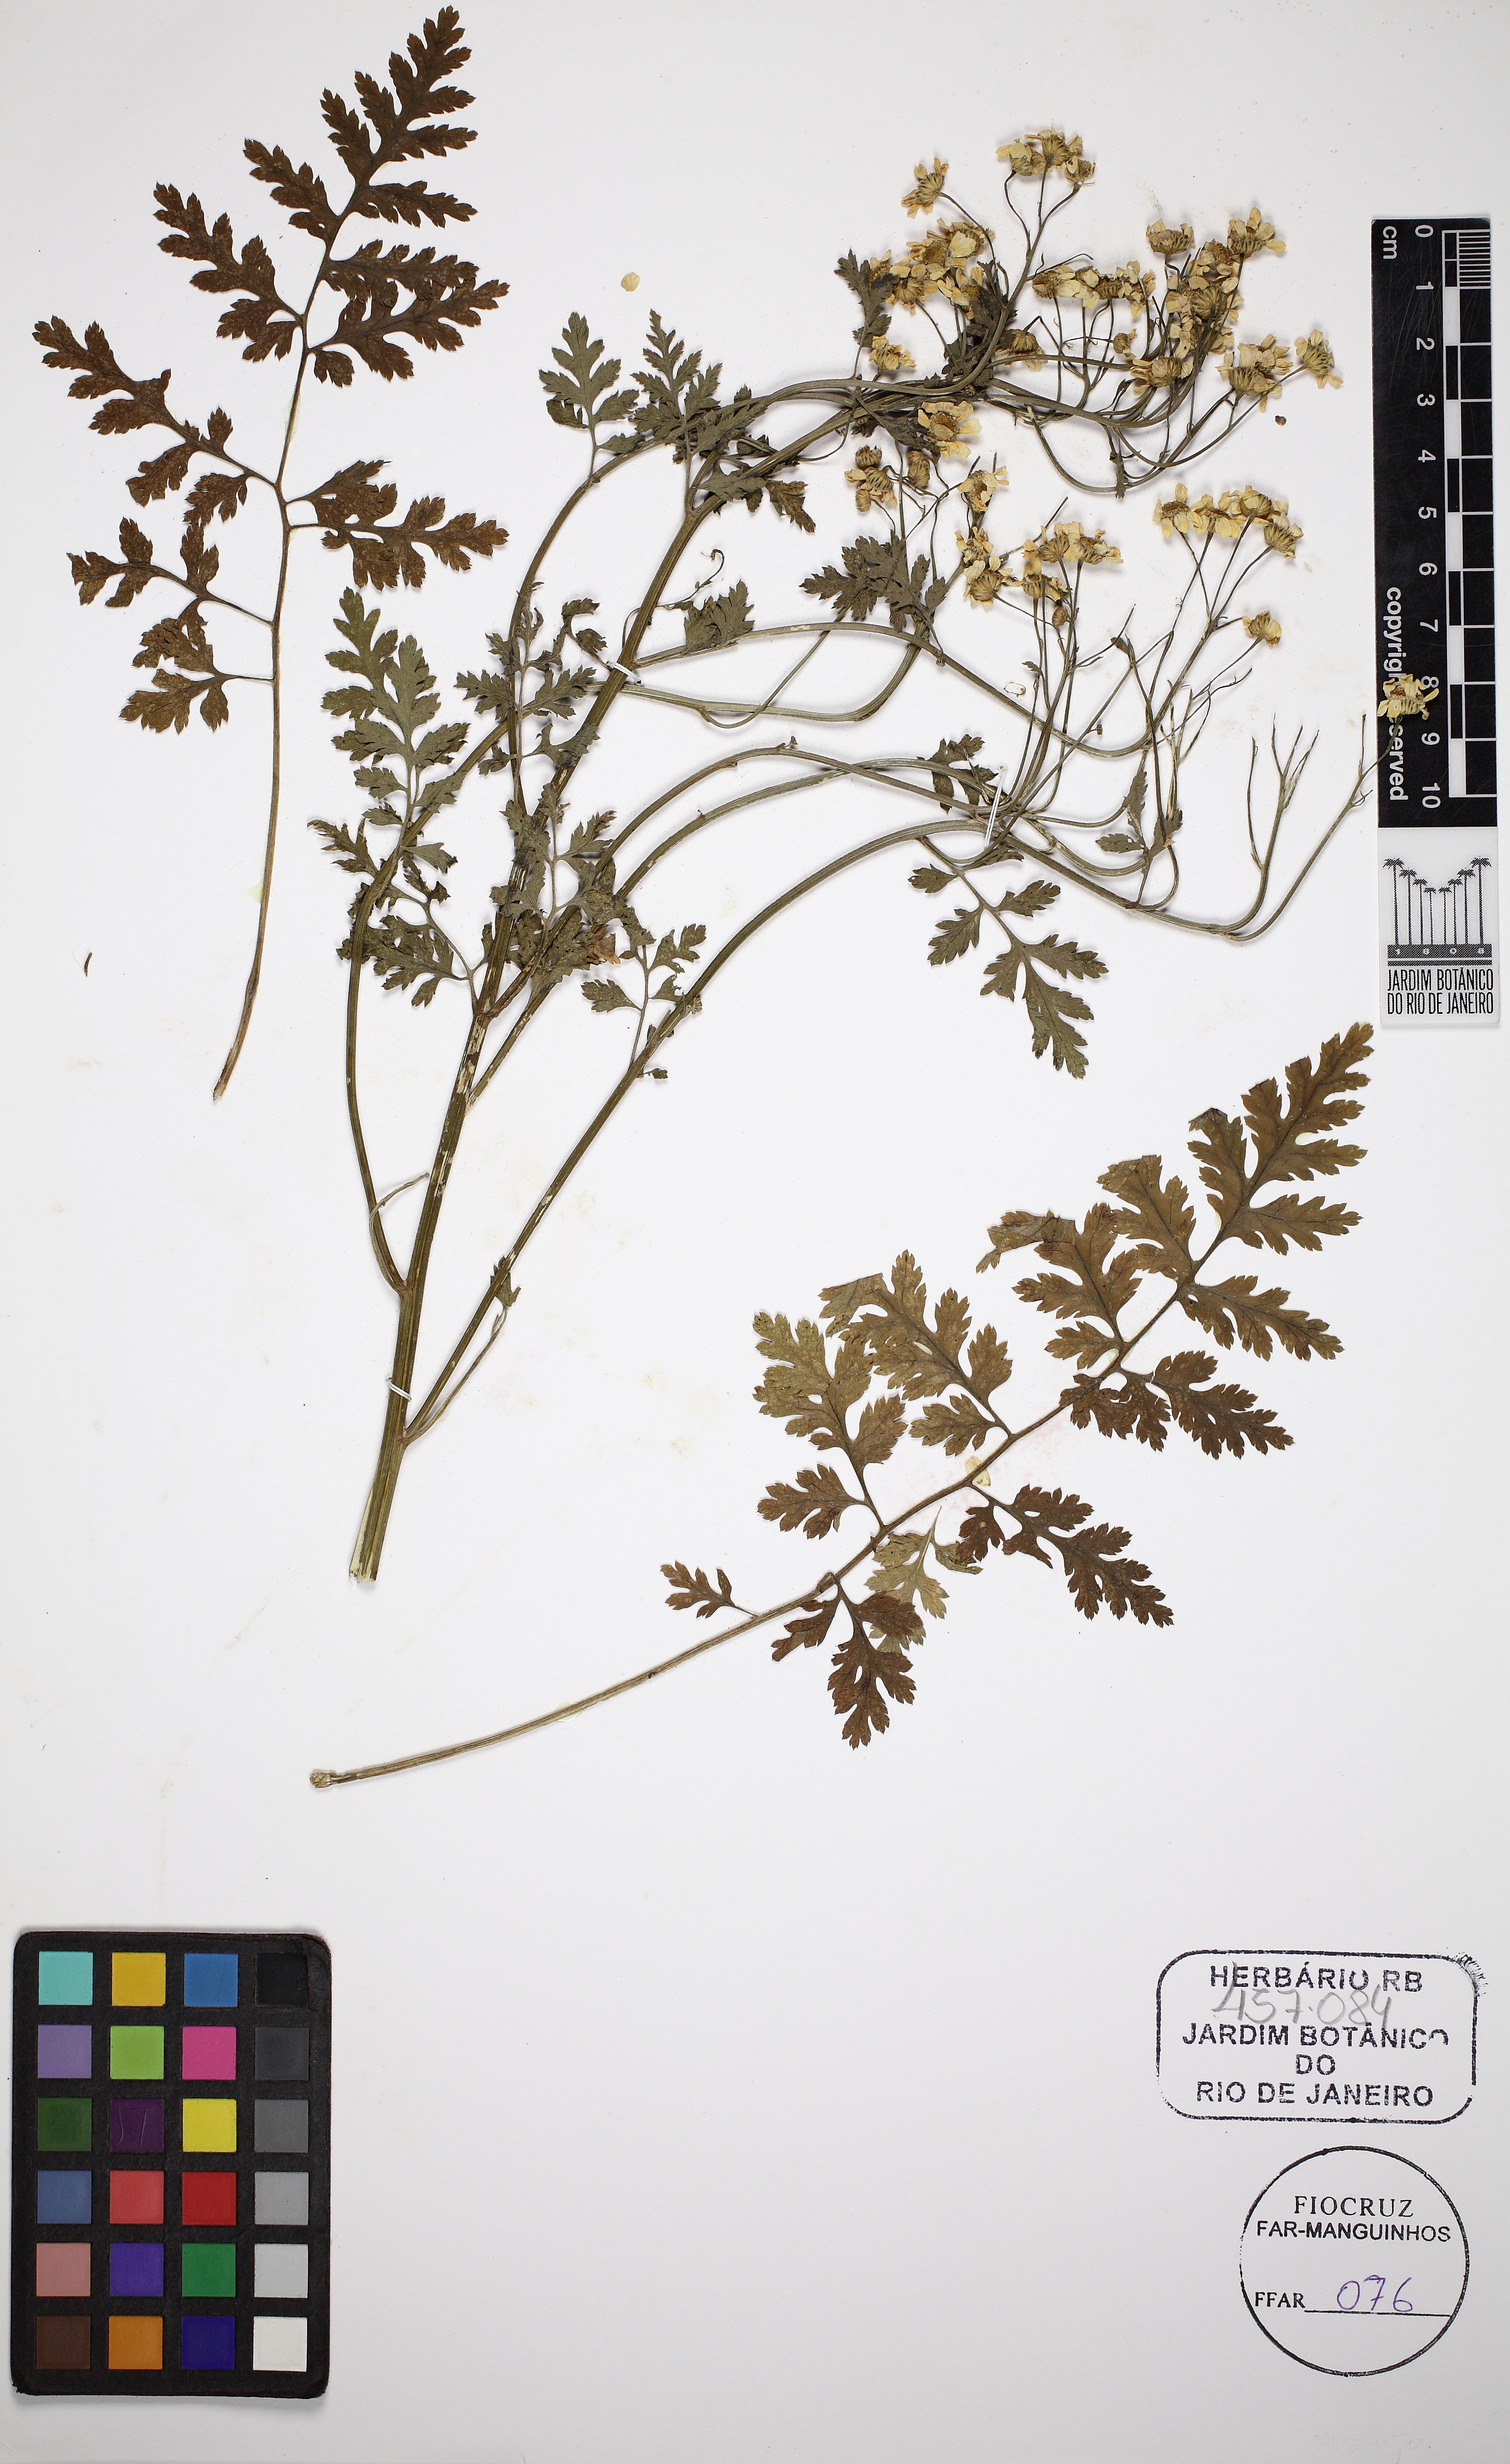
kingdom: Plantae
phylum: Tracheophyta
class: Magnoliopsida
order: Asterales
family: Asteraceae
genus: Tanacetum
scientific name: Tanacetum parthenium
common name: Feverfew
